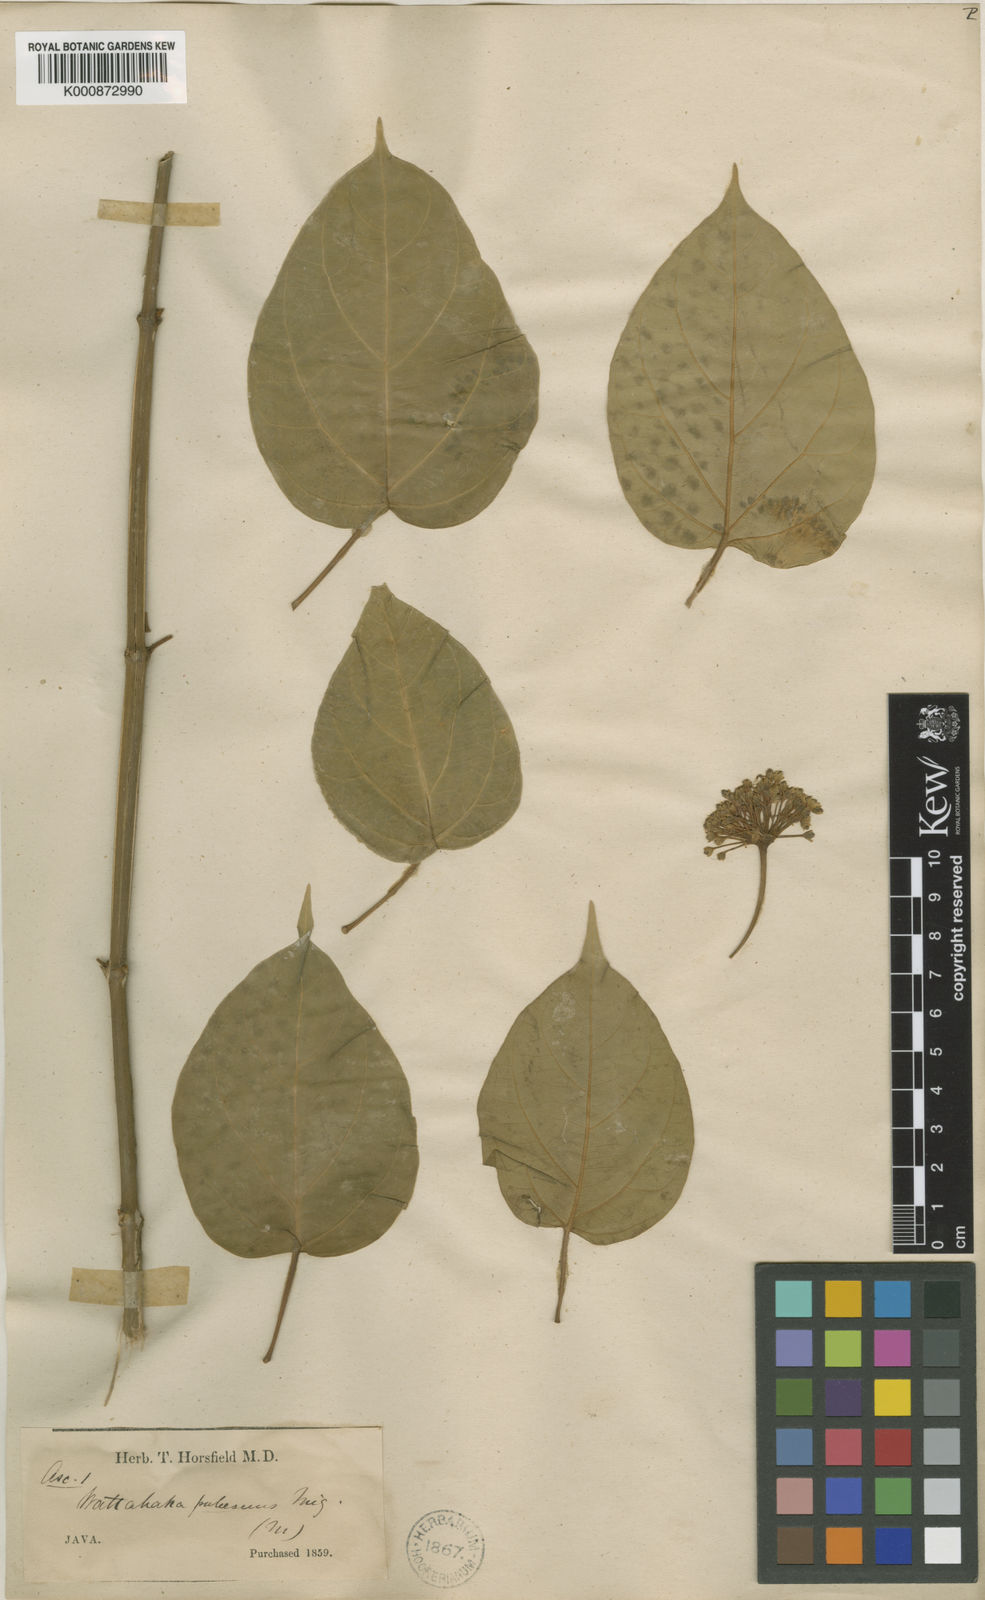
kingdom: Plantae
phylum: Tracheophyta
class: Magnoliopsida
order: Gentianales
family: Apocynaceae
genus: Stephanotis
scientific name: Stephanotis volubilis
